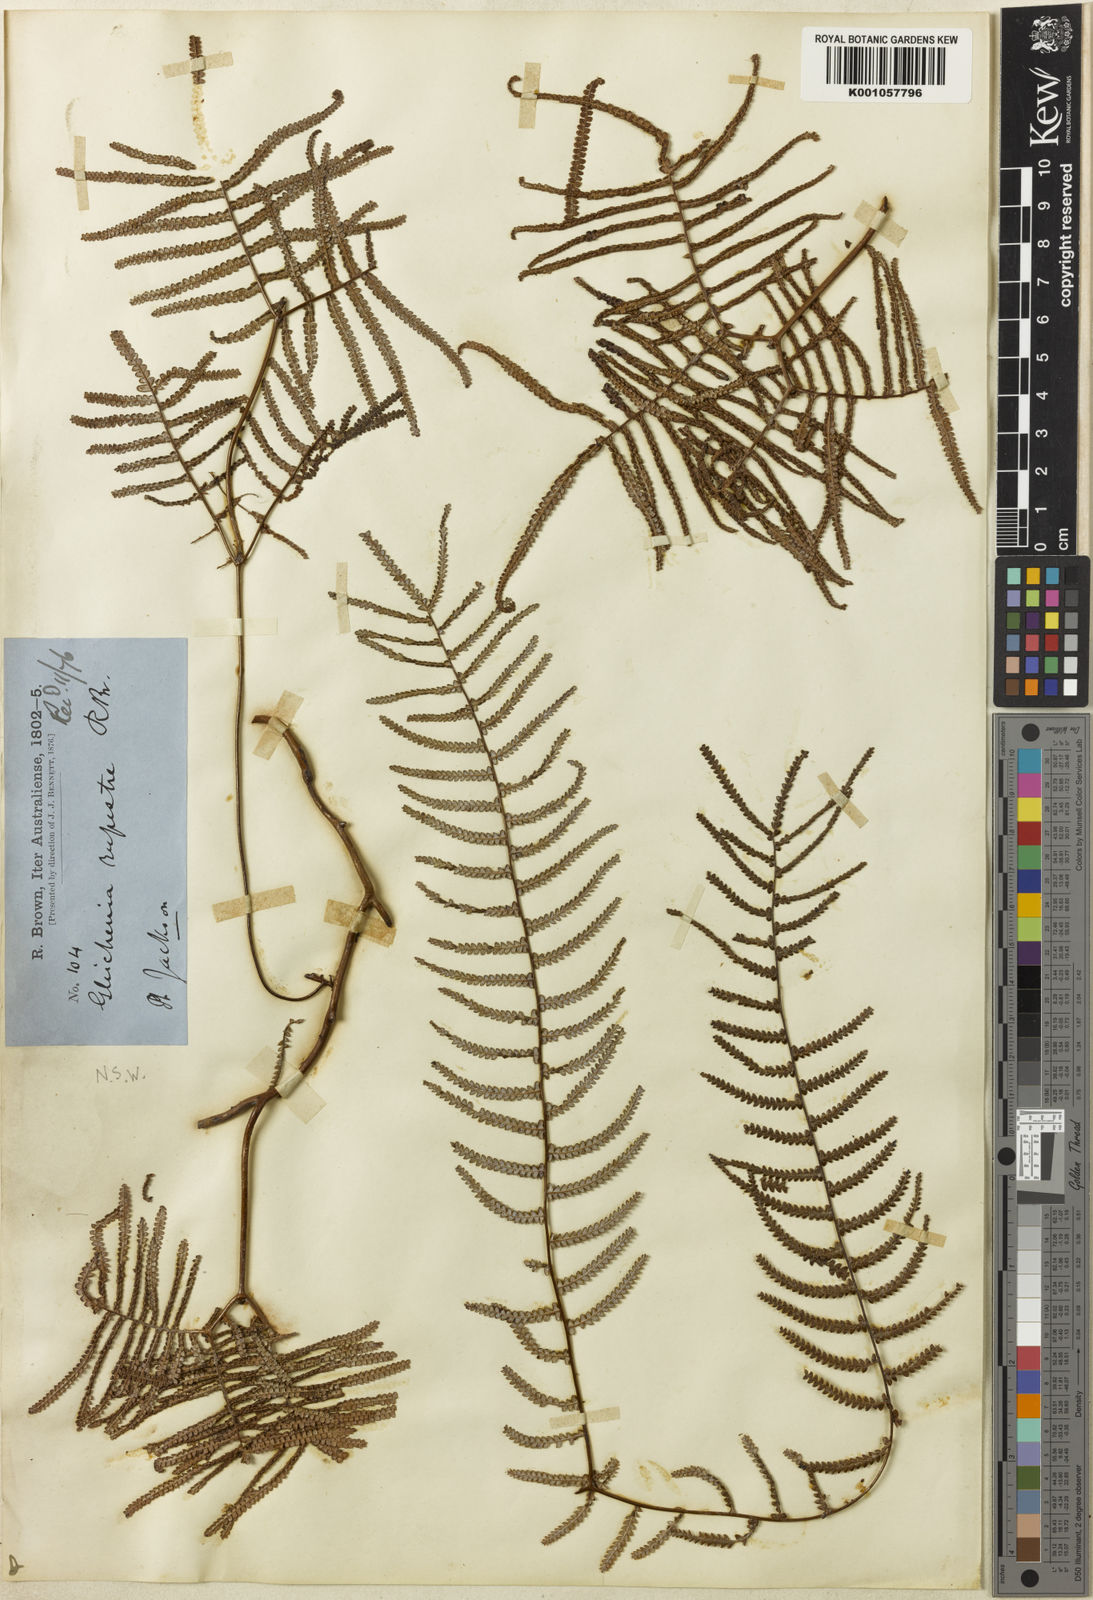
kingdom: Plantae
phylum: Tracheophyta
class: Polypodiopsida
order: Gleicheniales
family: Gleicheniaceae
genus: Gleichenia
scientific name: Gleichenia rupestris
